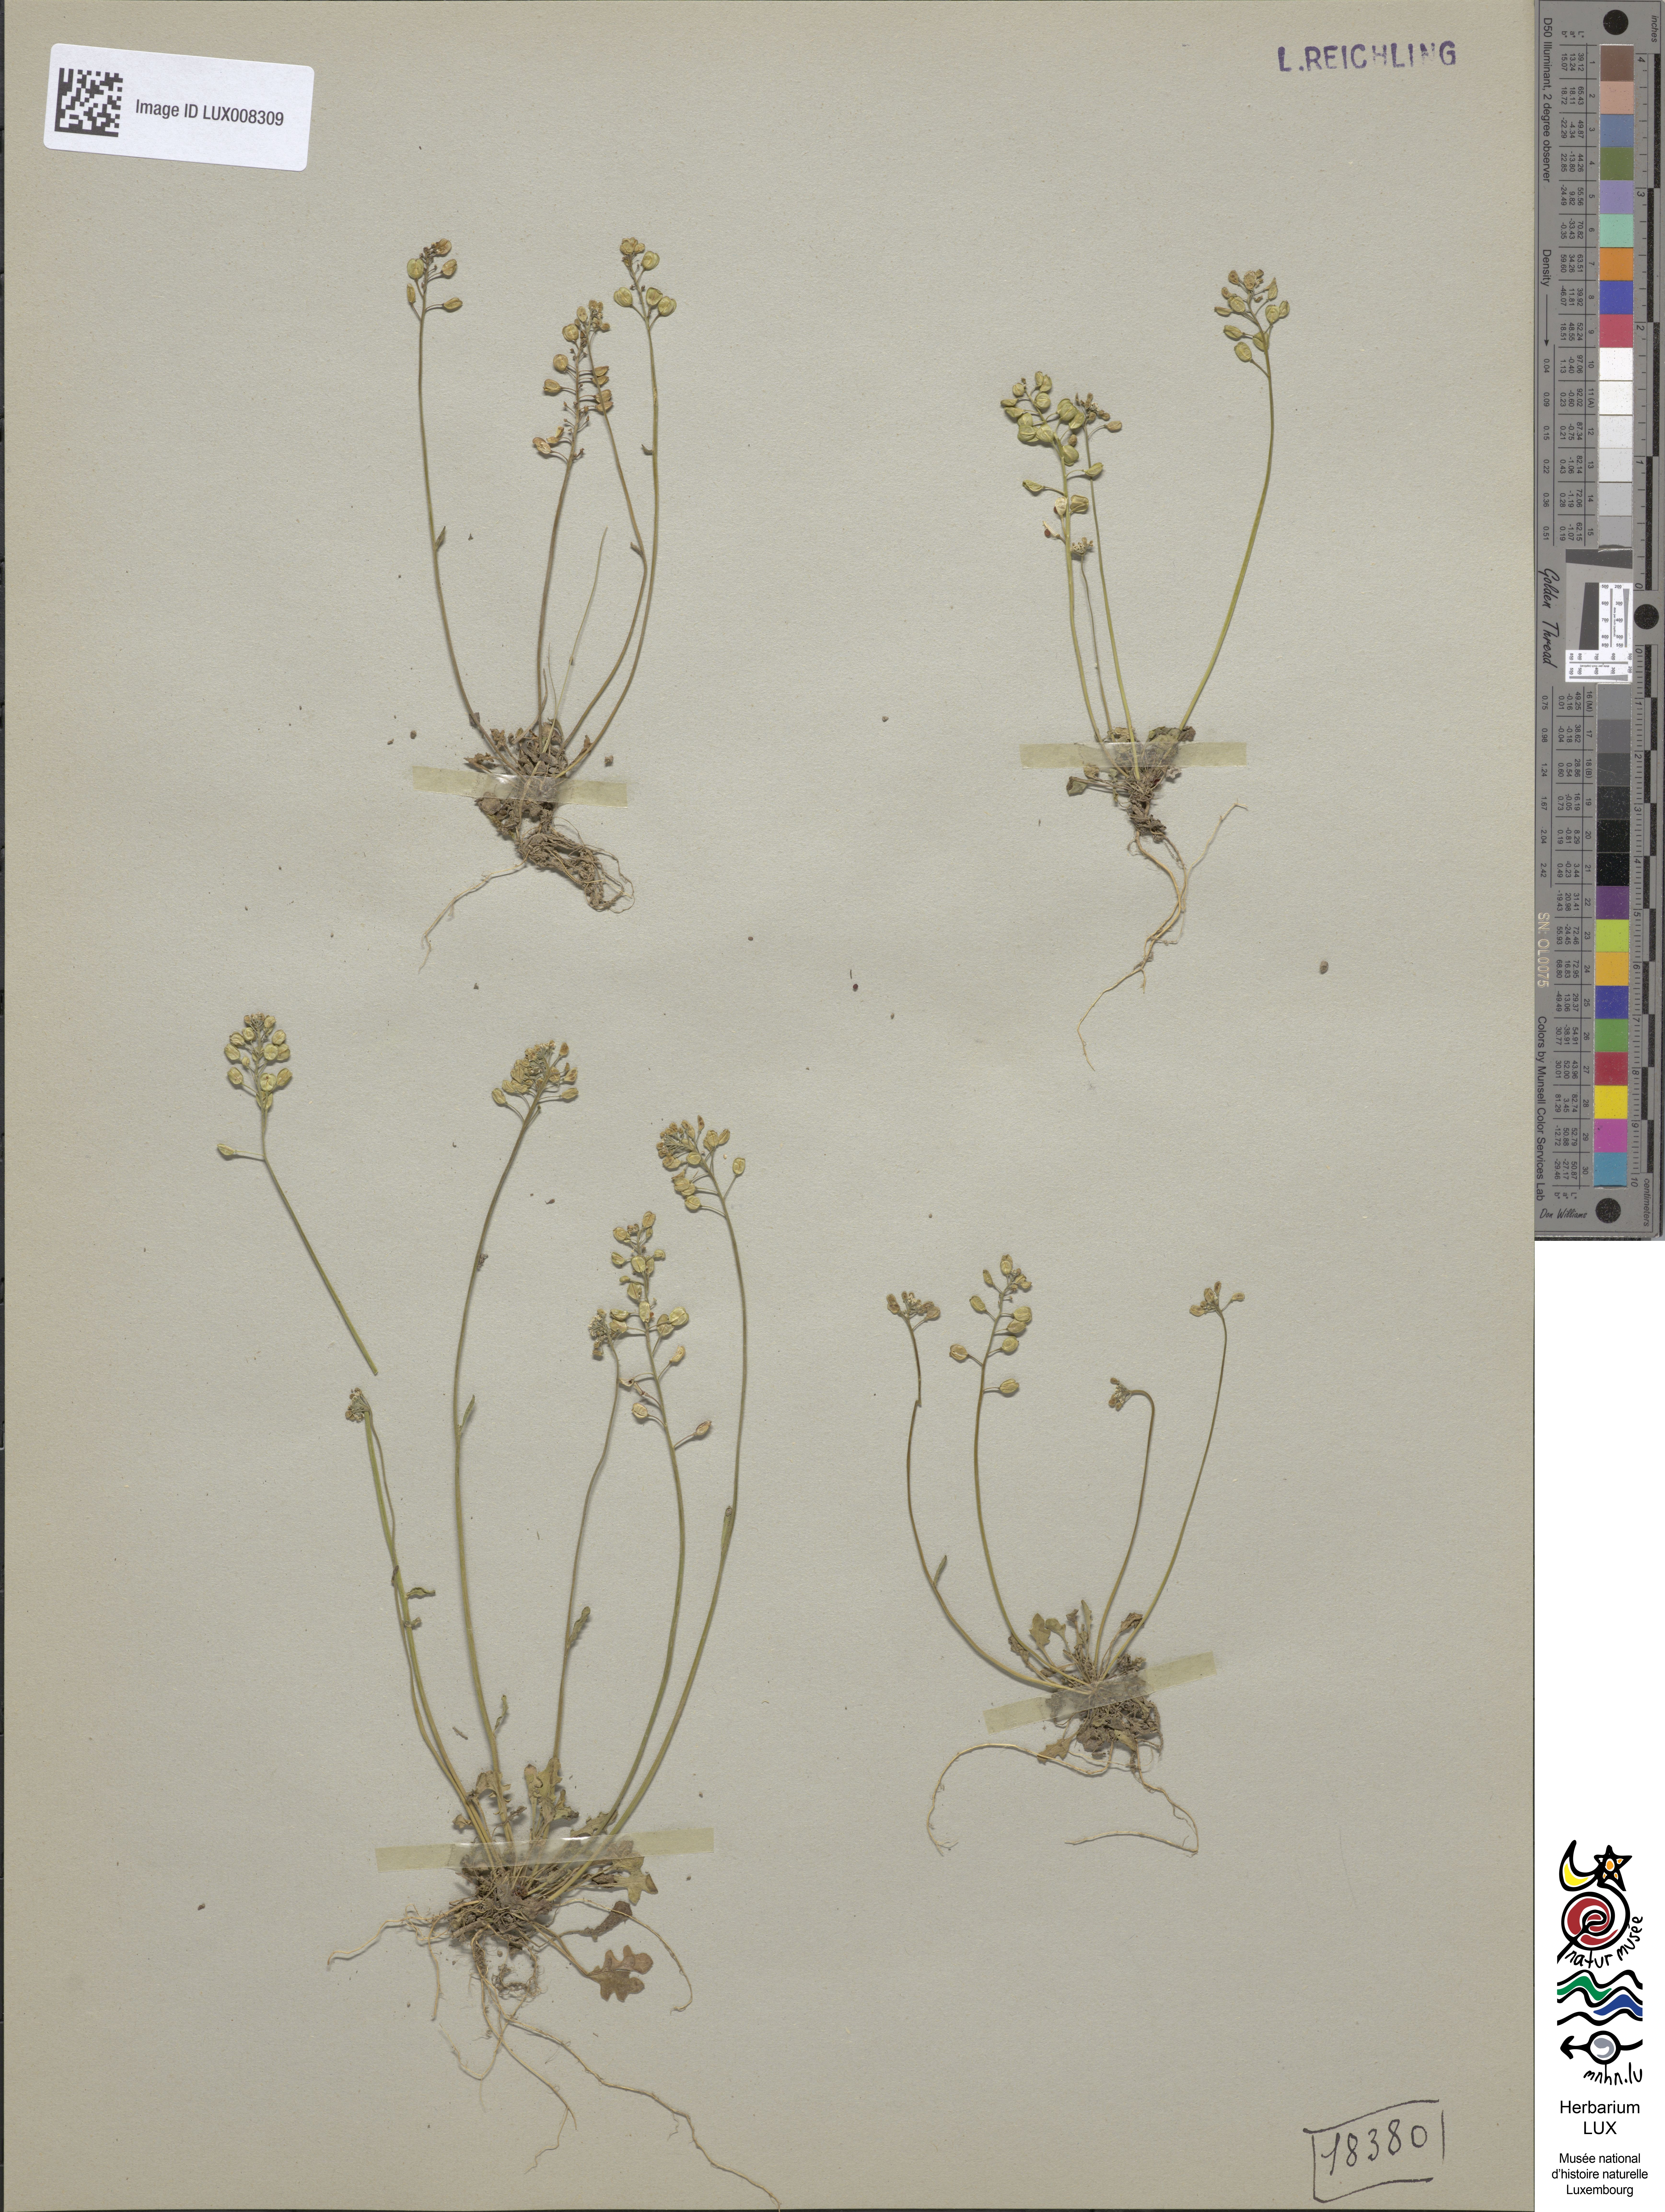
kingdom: Plantae
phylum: Tracheophyta
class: Magnoliopsida
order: Brassicales
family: Brassicaceae
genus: Teesdalia
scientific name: Teesdalia nudicaulis
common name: Shepherd's cress
